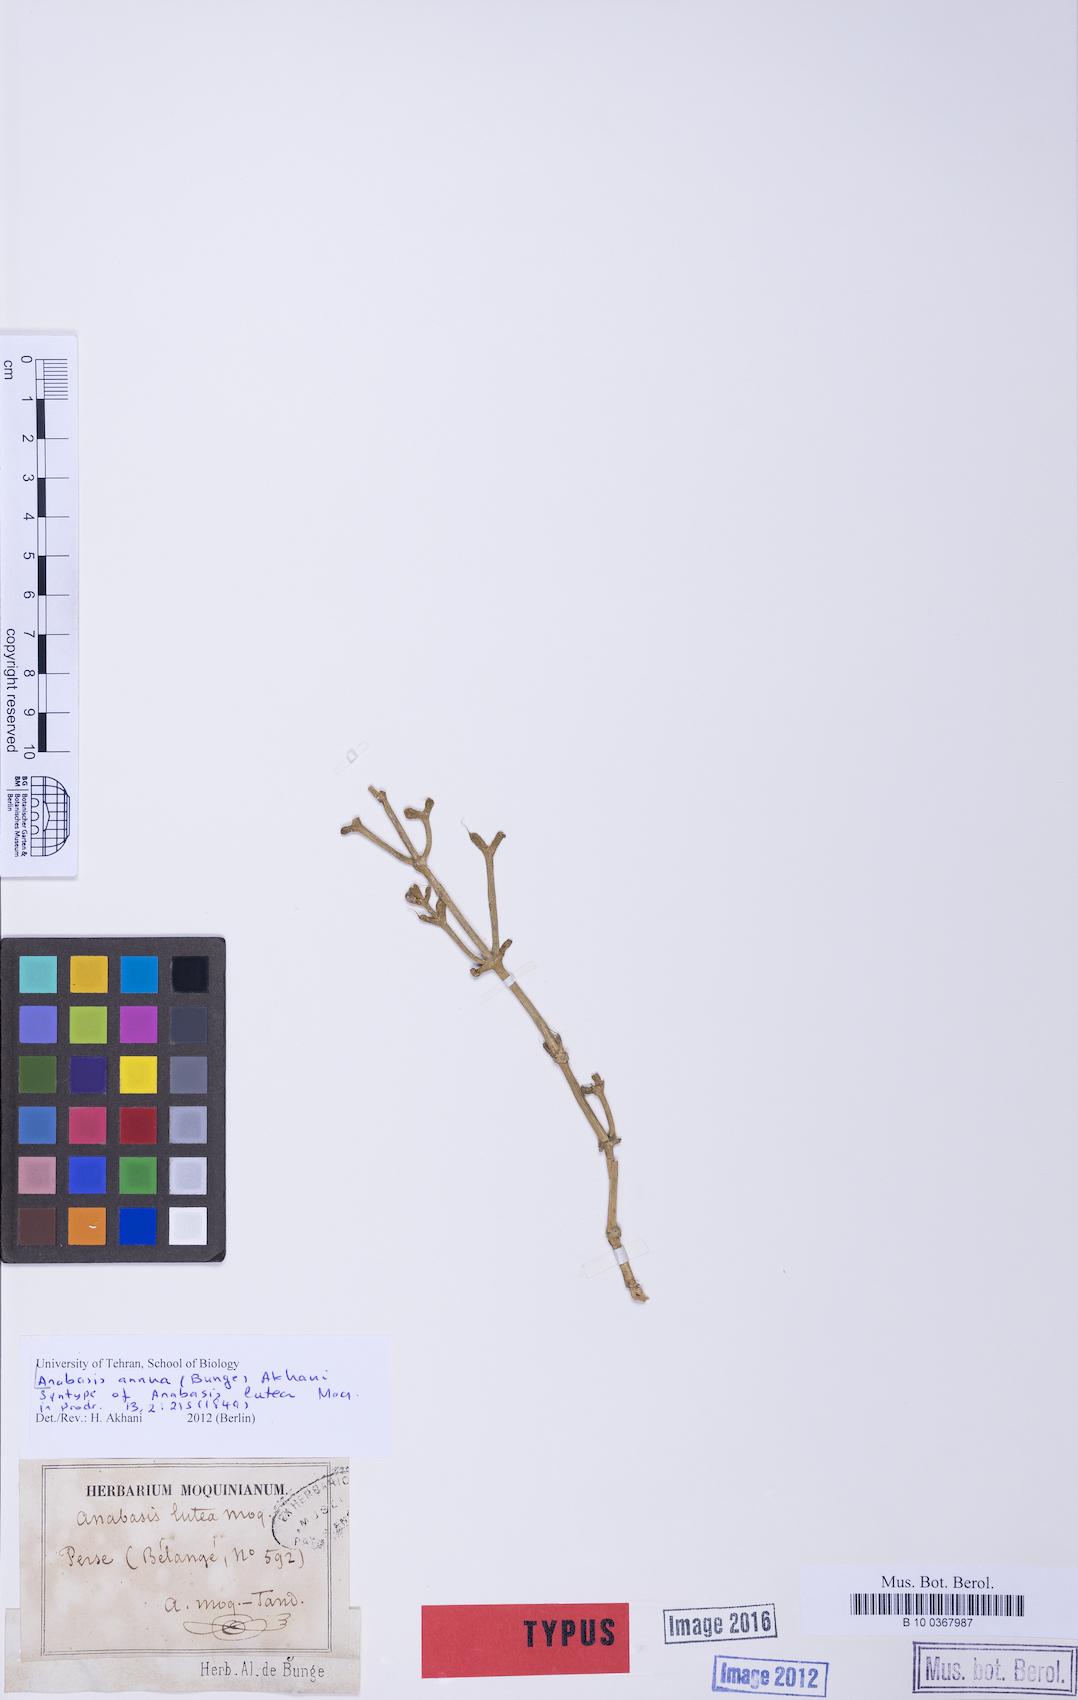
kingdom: Plantae
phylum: Tracheophyta
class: Magnoliopsida
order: Caryophyllales
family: Amaranthaceae
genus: Anabasis
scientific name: Anabasis annua
